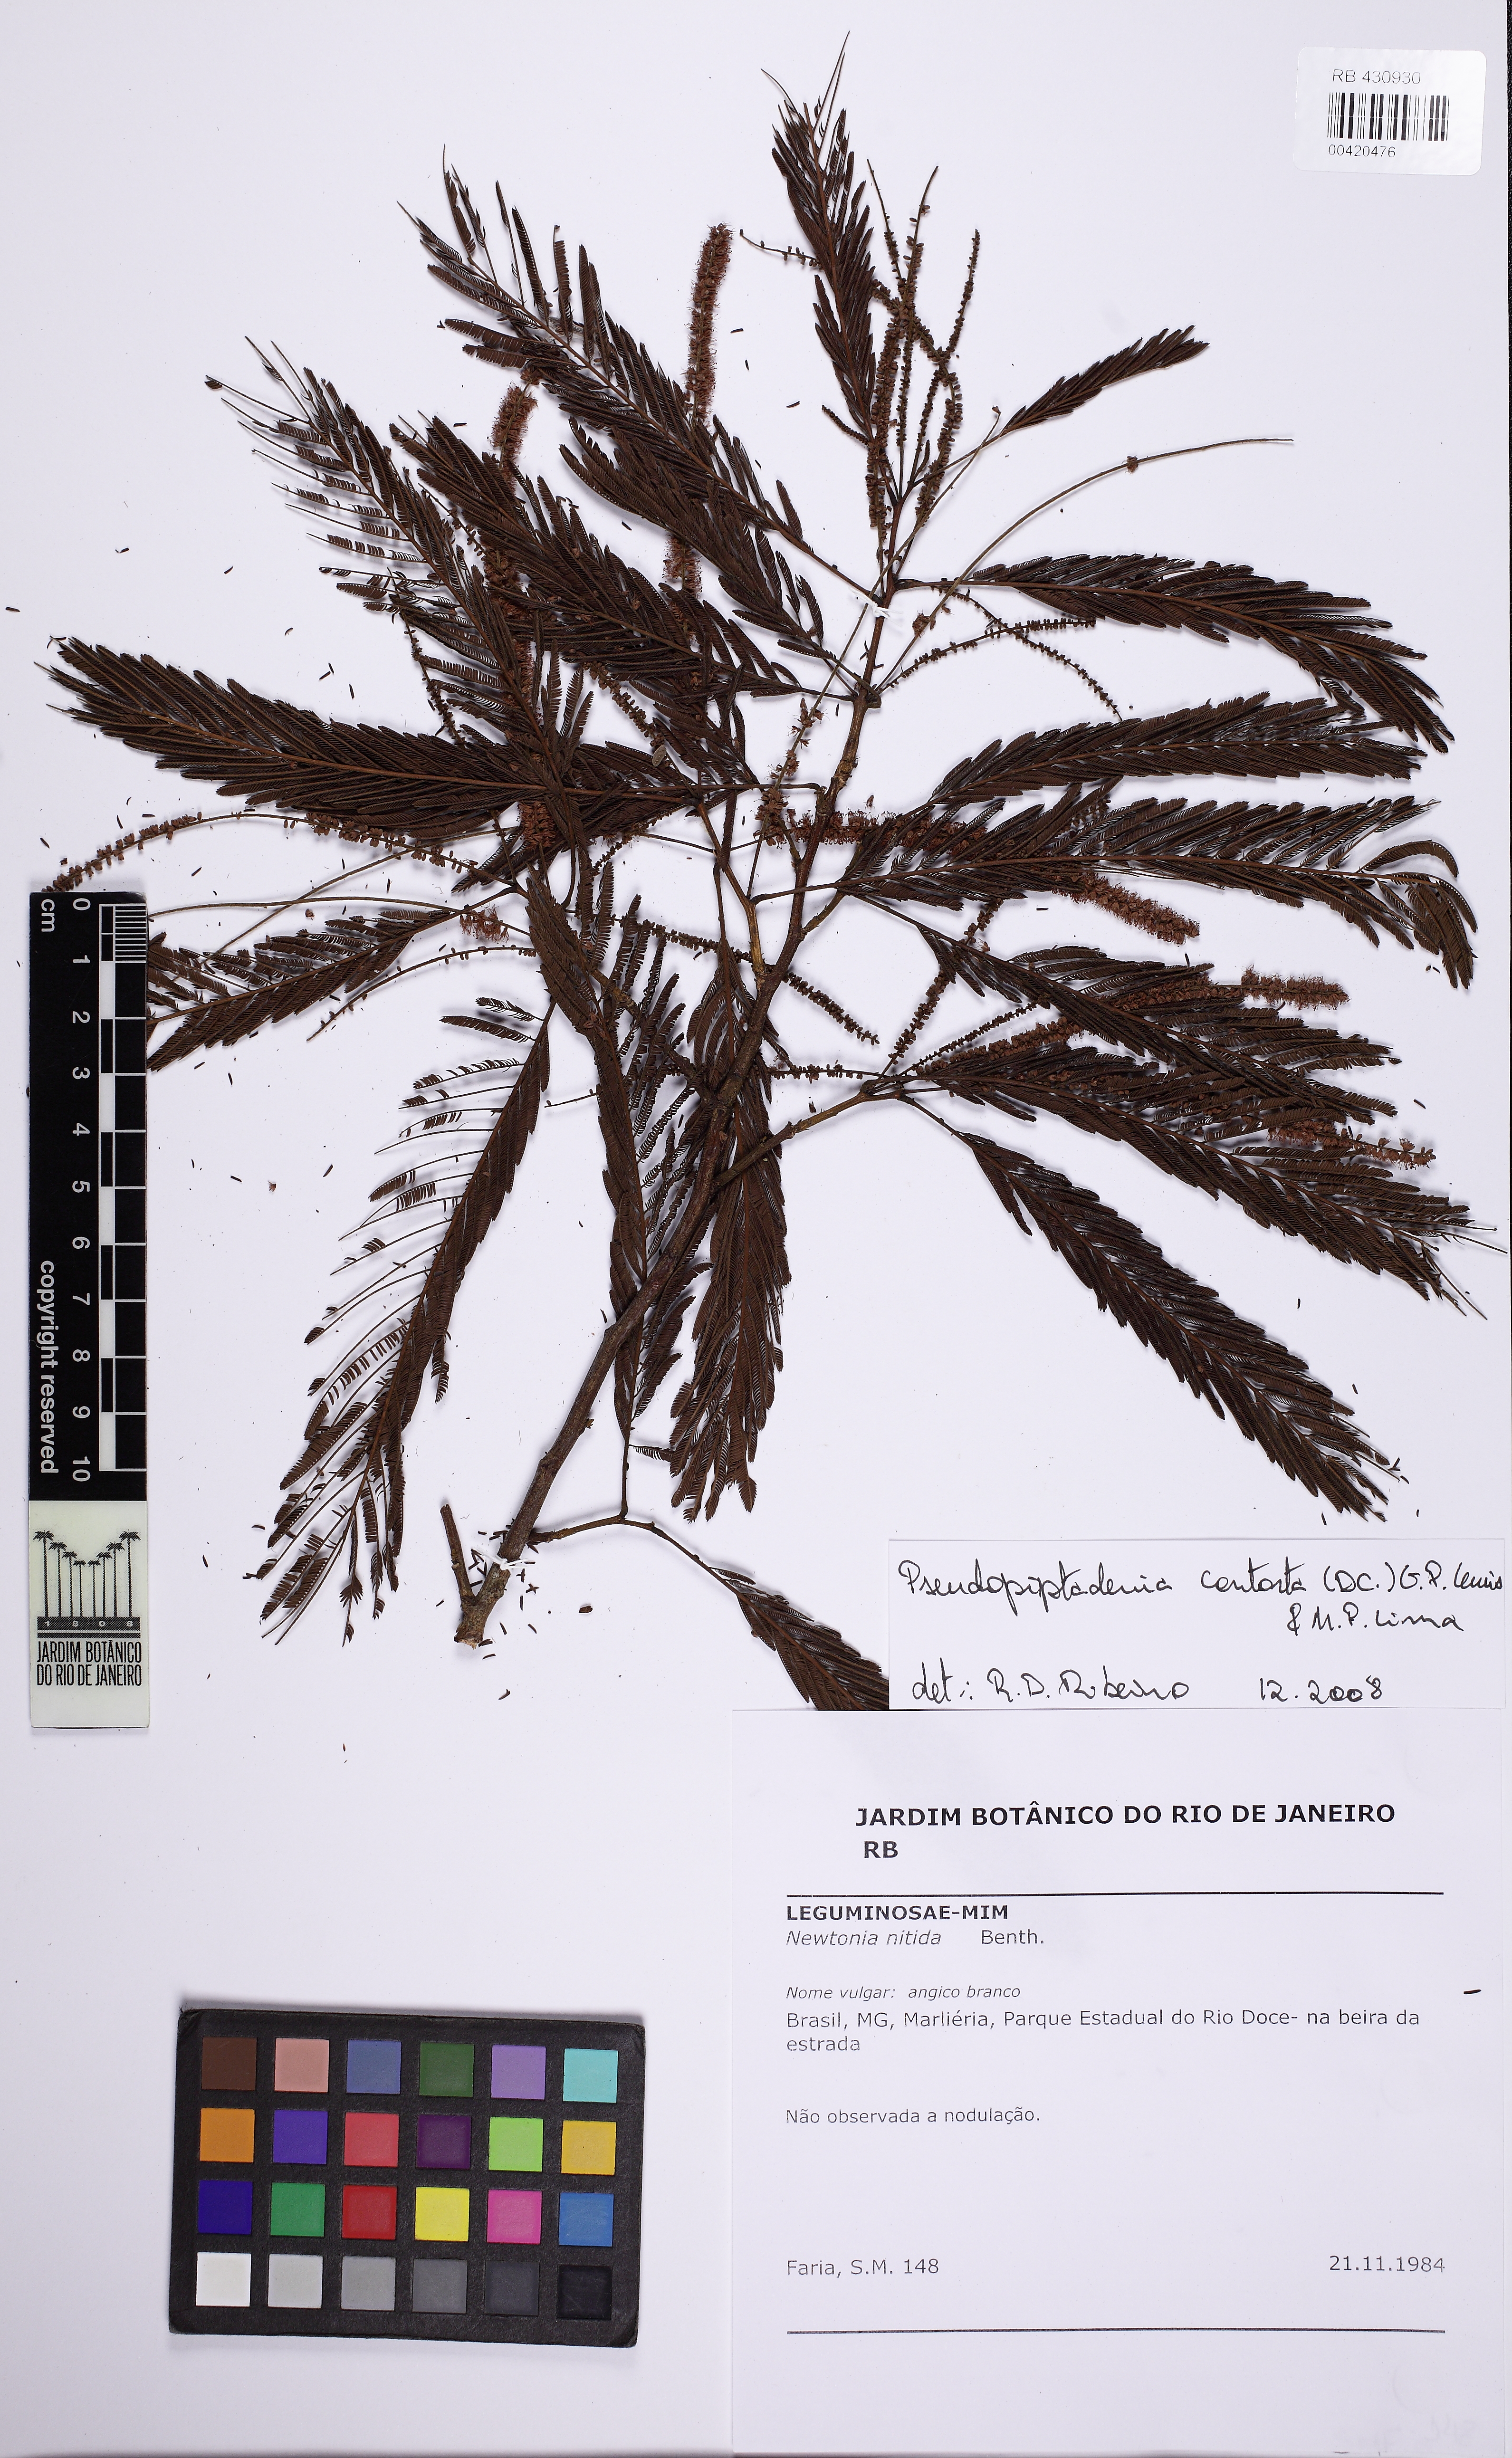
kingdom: Plantae
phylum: Tracheophyta
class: Magnoliopsida
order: Fabales
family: Fabaceae
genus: Pseudopiptadenia
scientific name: Pseudopiptadenia contorta
